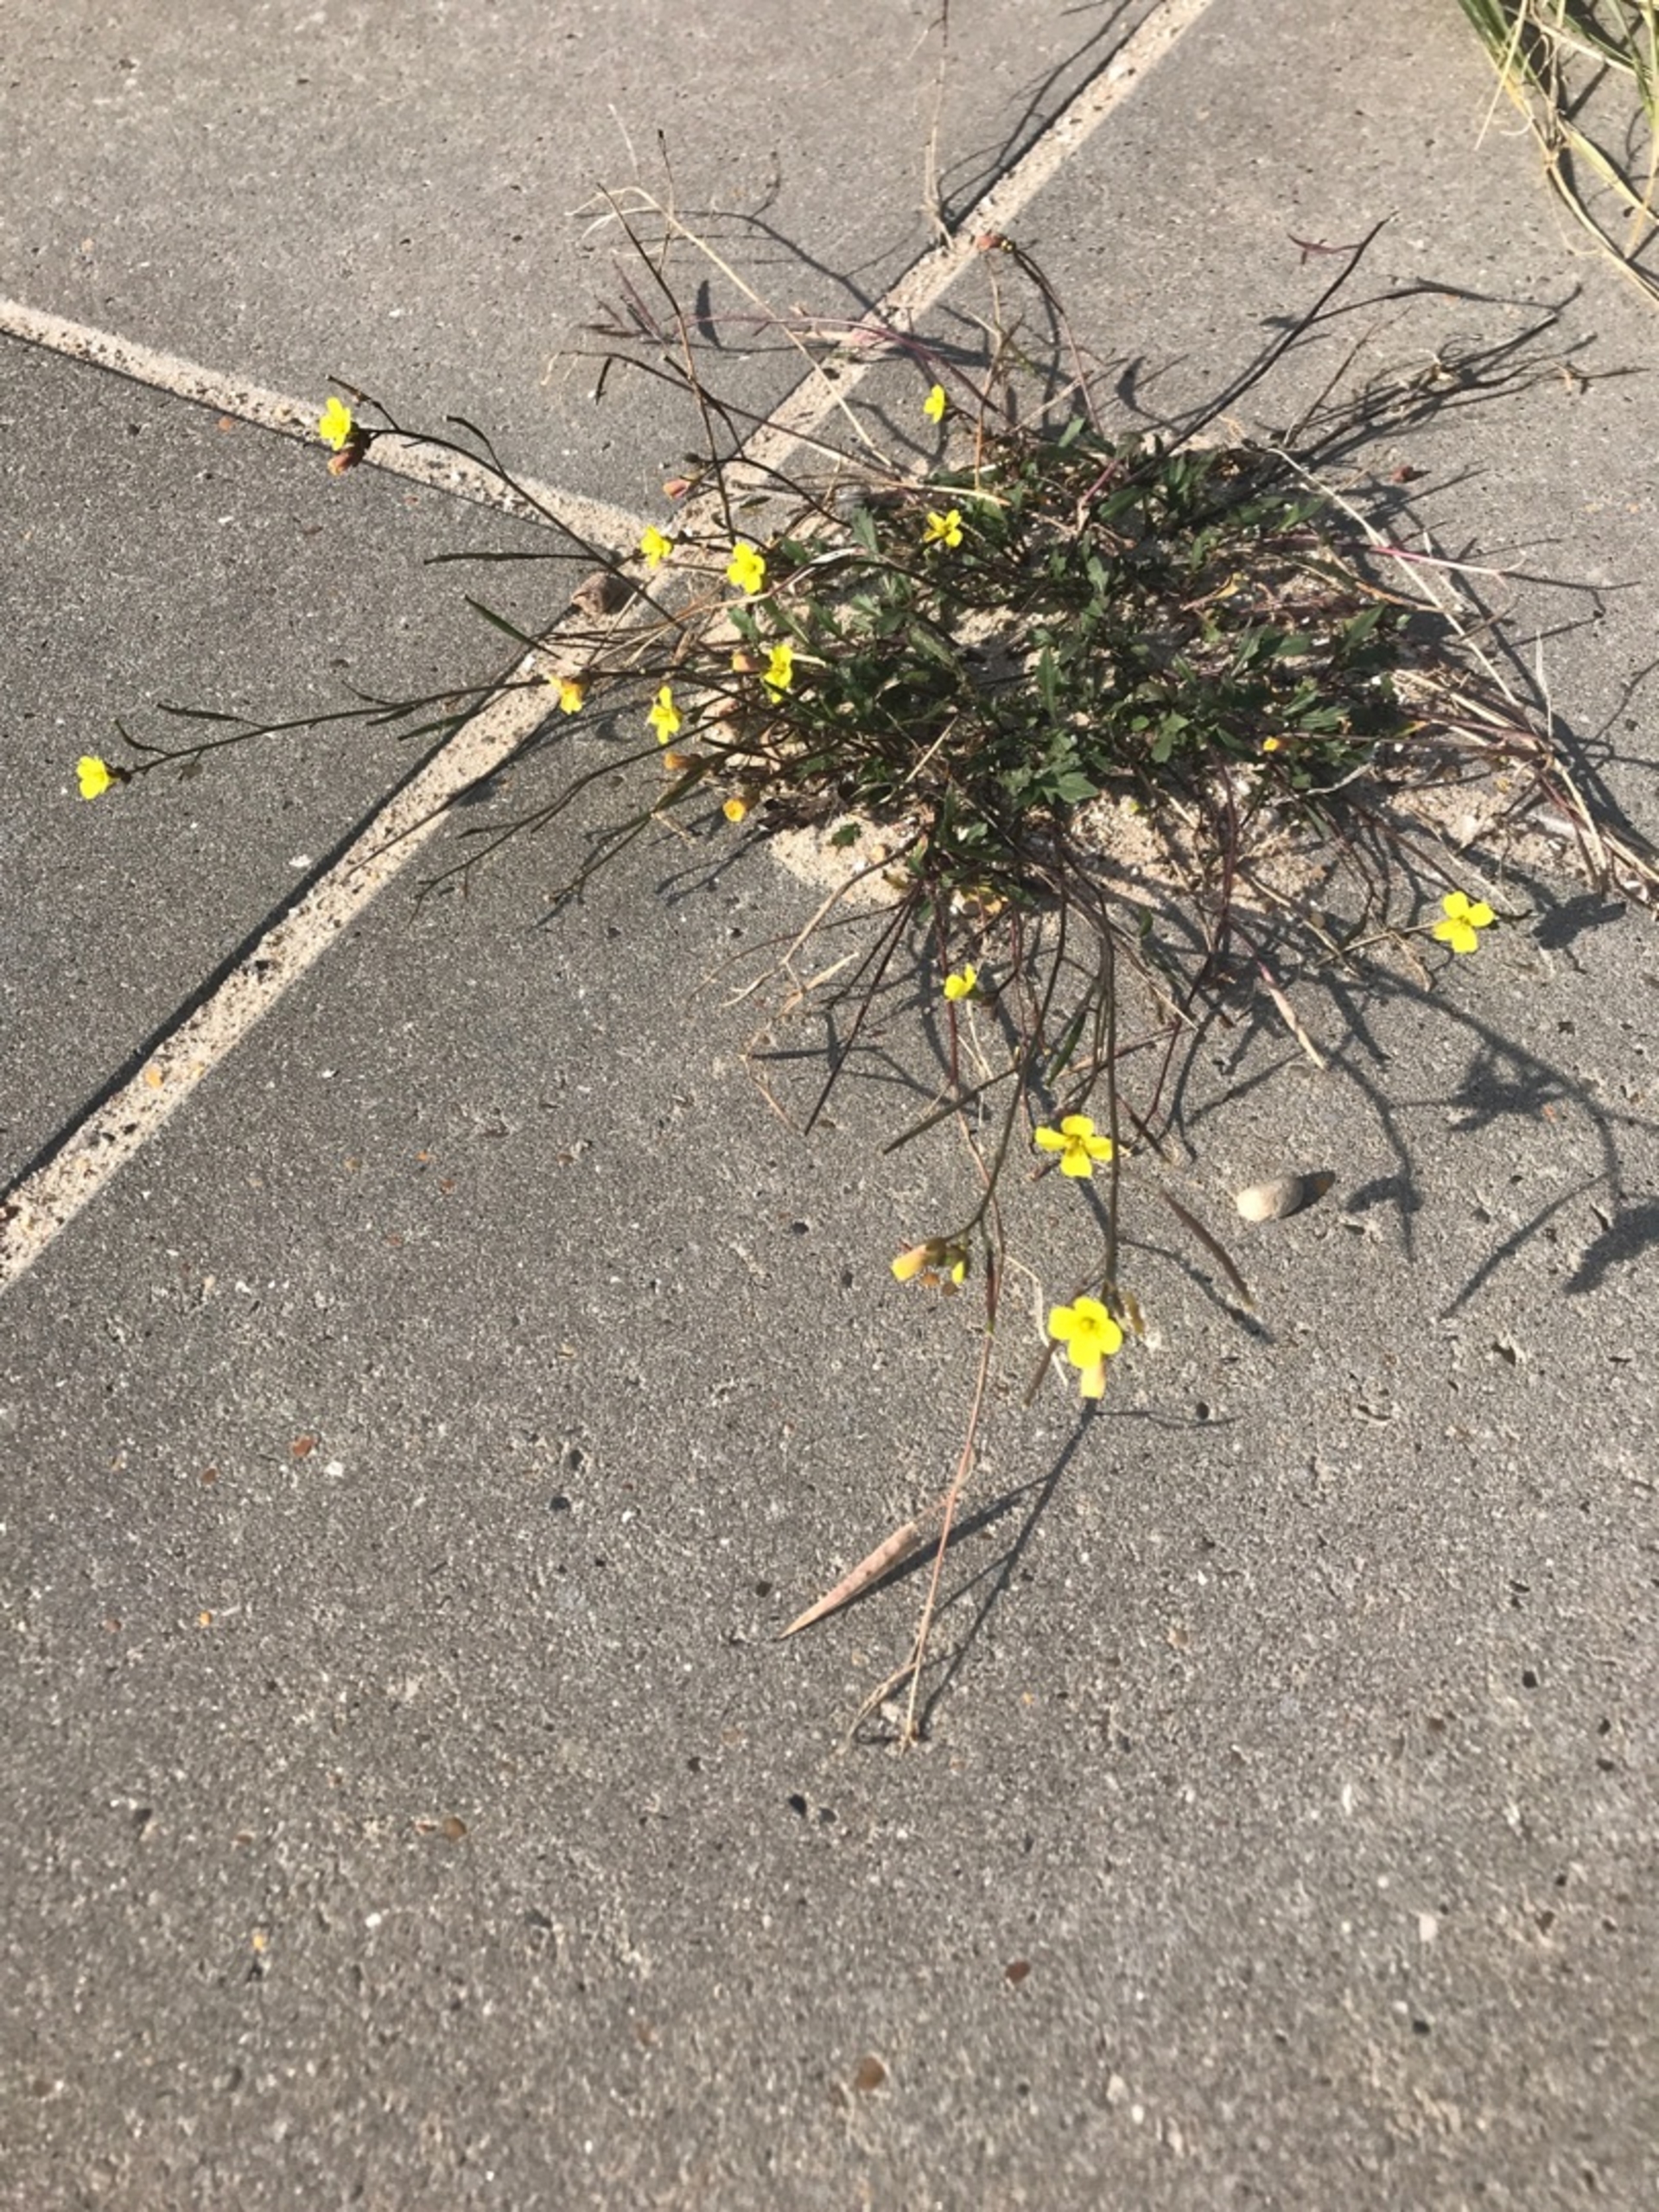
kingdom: Plantae
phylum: Tracheophyta
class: Magnoliopsida
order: Brassicales
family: Brassicaceae
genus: Diplotaxis
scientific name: Diplotaxis muralis
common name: Mursennep
